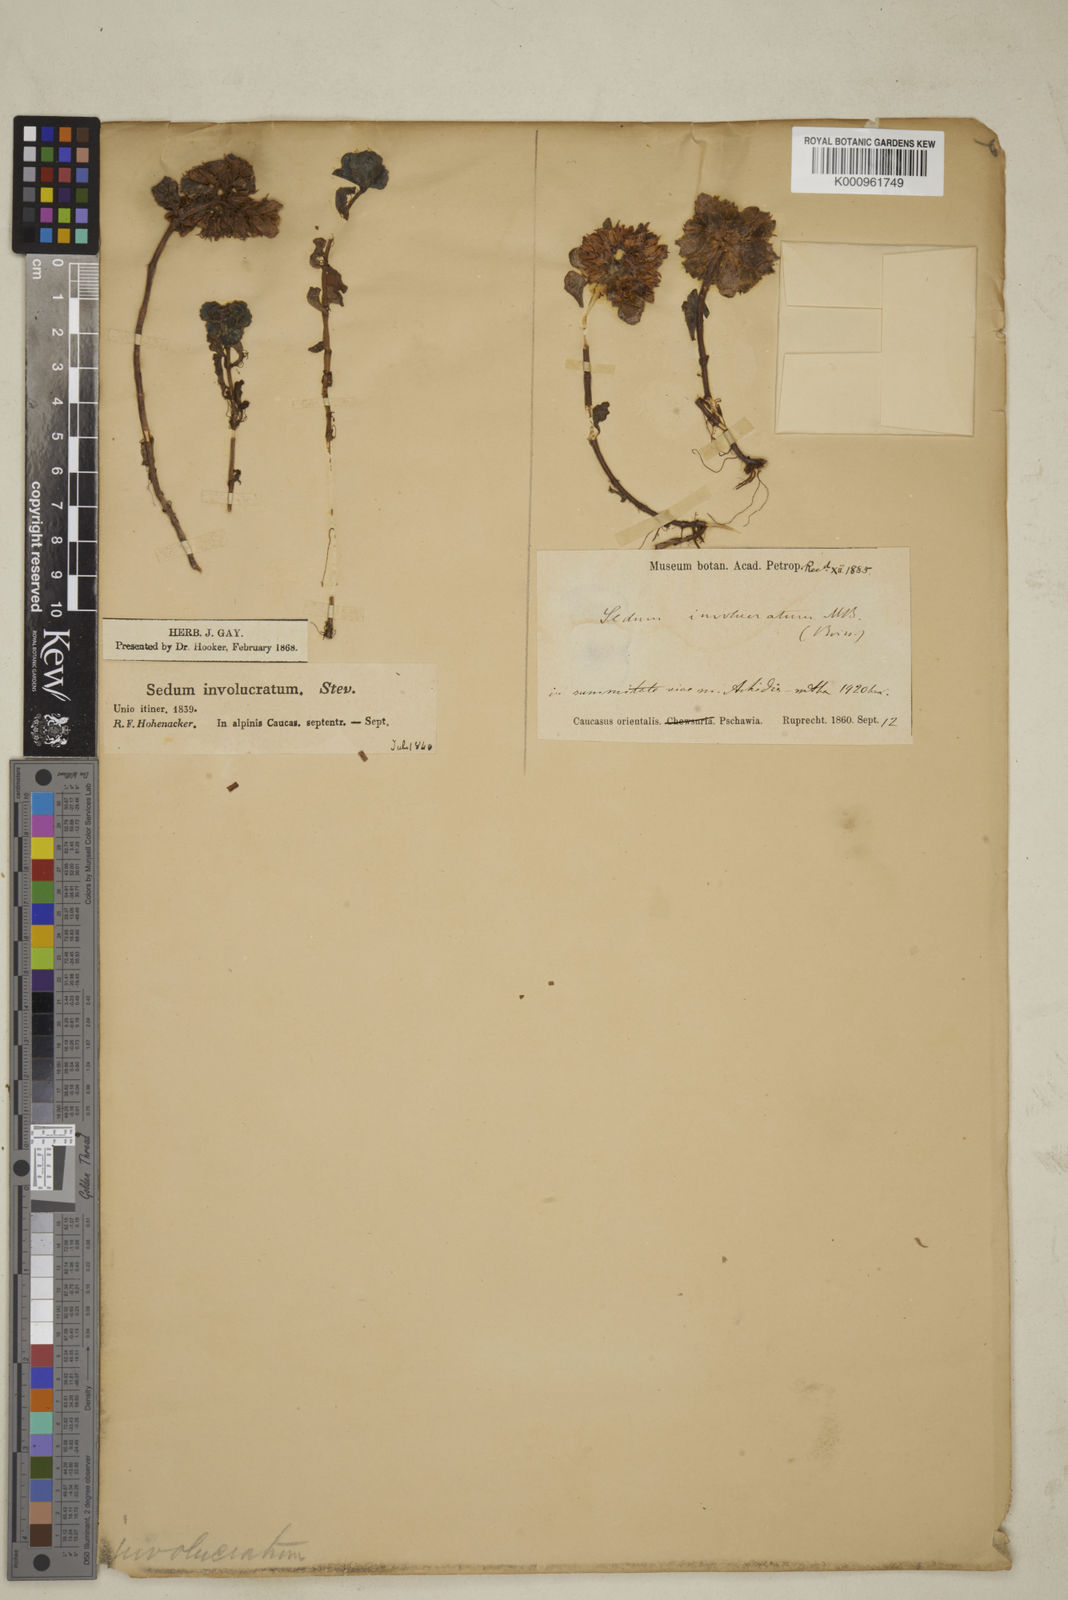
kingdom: Plantae
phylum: Tracheophyta
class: Magnoliopsida
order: Saxifragales
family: Crassulaceae
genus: Phedimus
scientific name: Phedimus spurius
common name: Caucasian stonecrop
